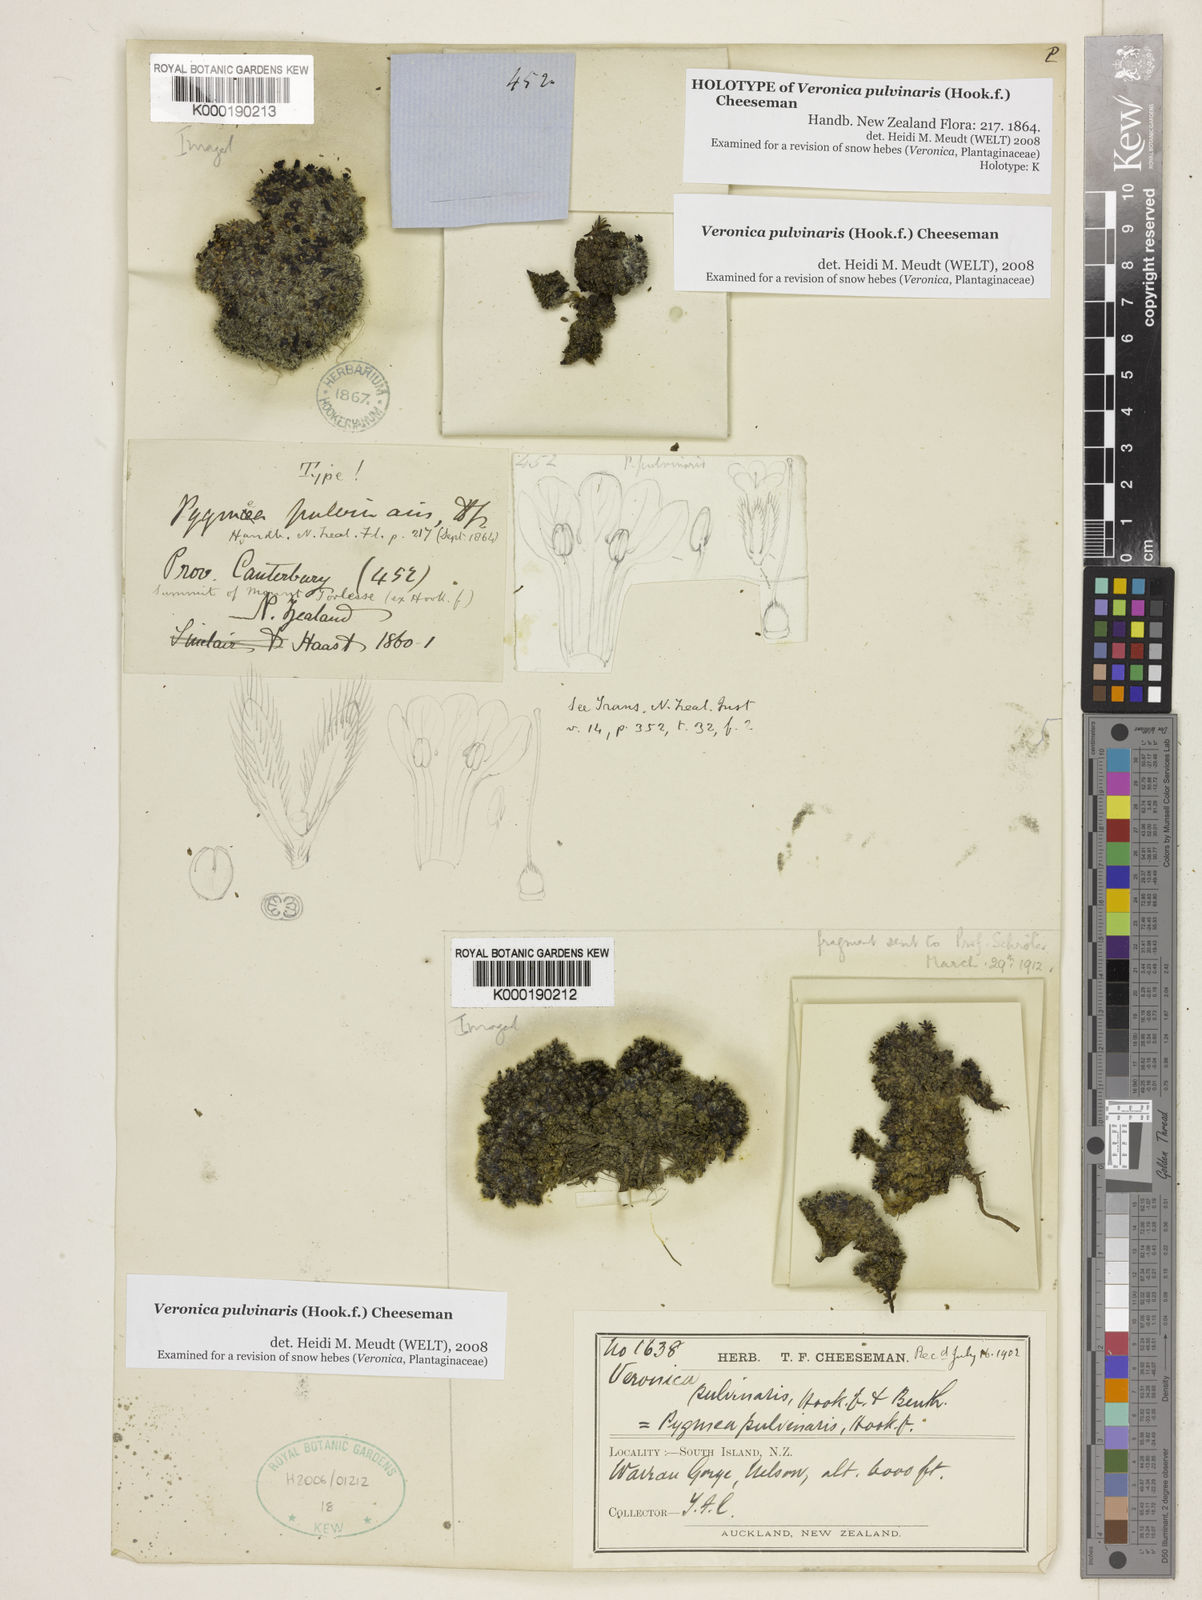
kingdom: Plantae
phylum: Tracheophyta
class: Magnoliopsida
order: Lamiales
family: Plantaginaceae
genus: Veronica
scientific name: Veronica pulvinaris
